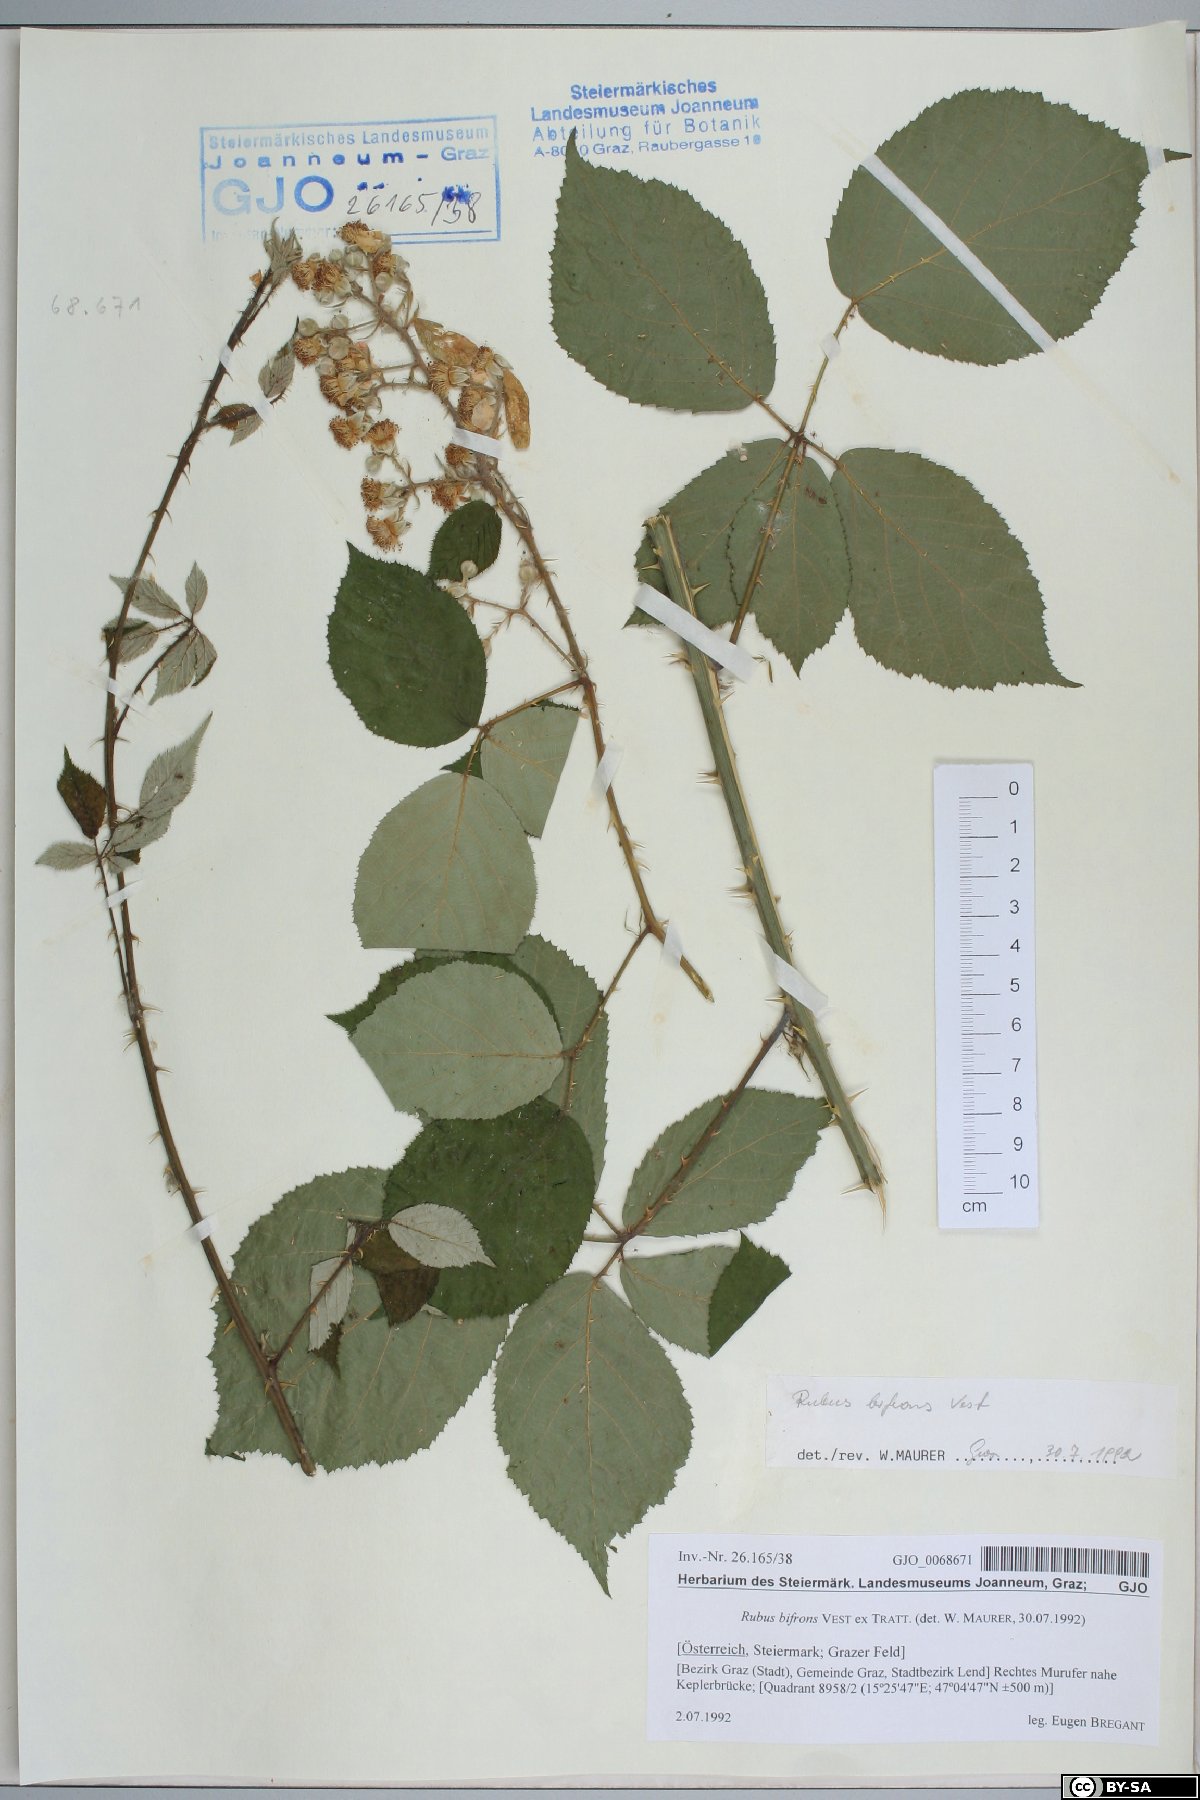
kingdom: Plantae
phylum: Tracheophyta
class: Magnoliopsida
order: Rosales
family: Rosaceae
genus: Rubus
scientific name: Rubus bifrons
